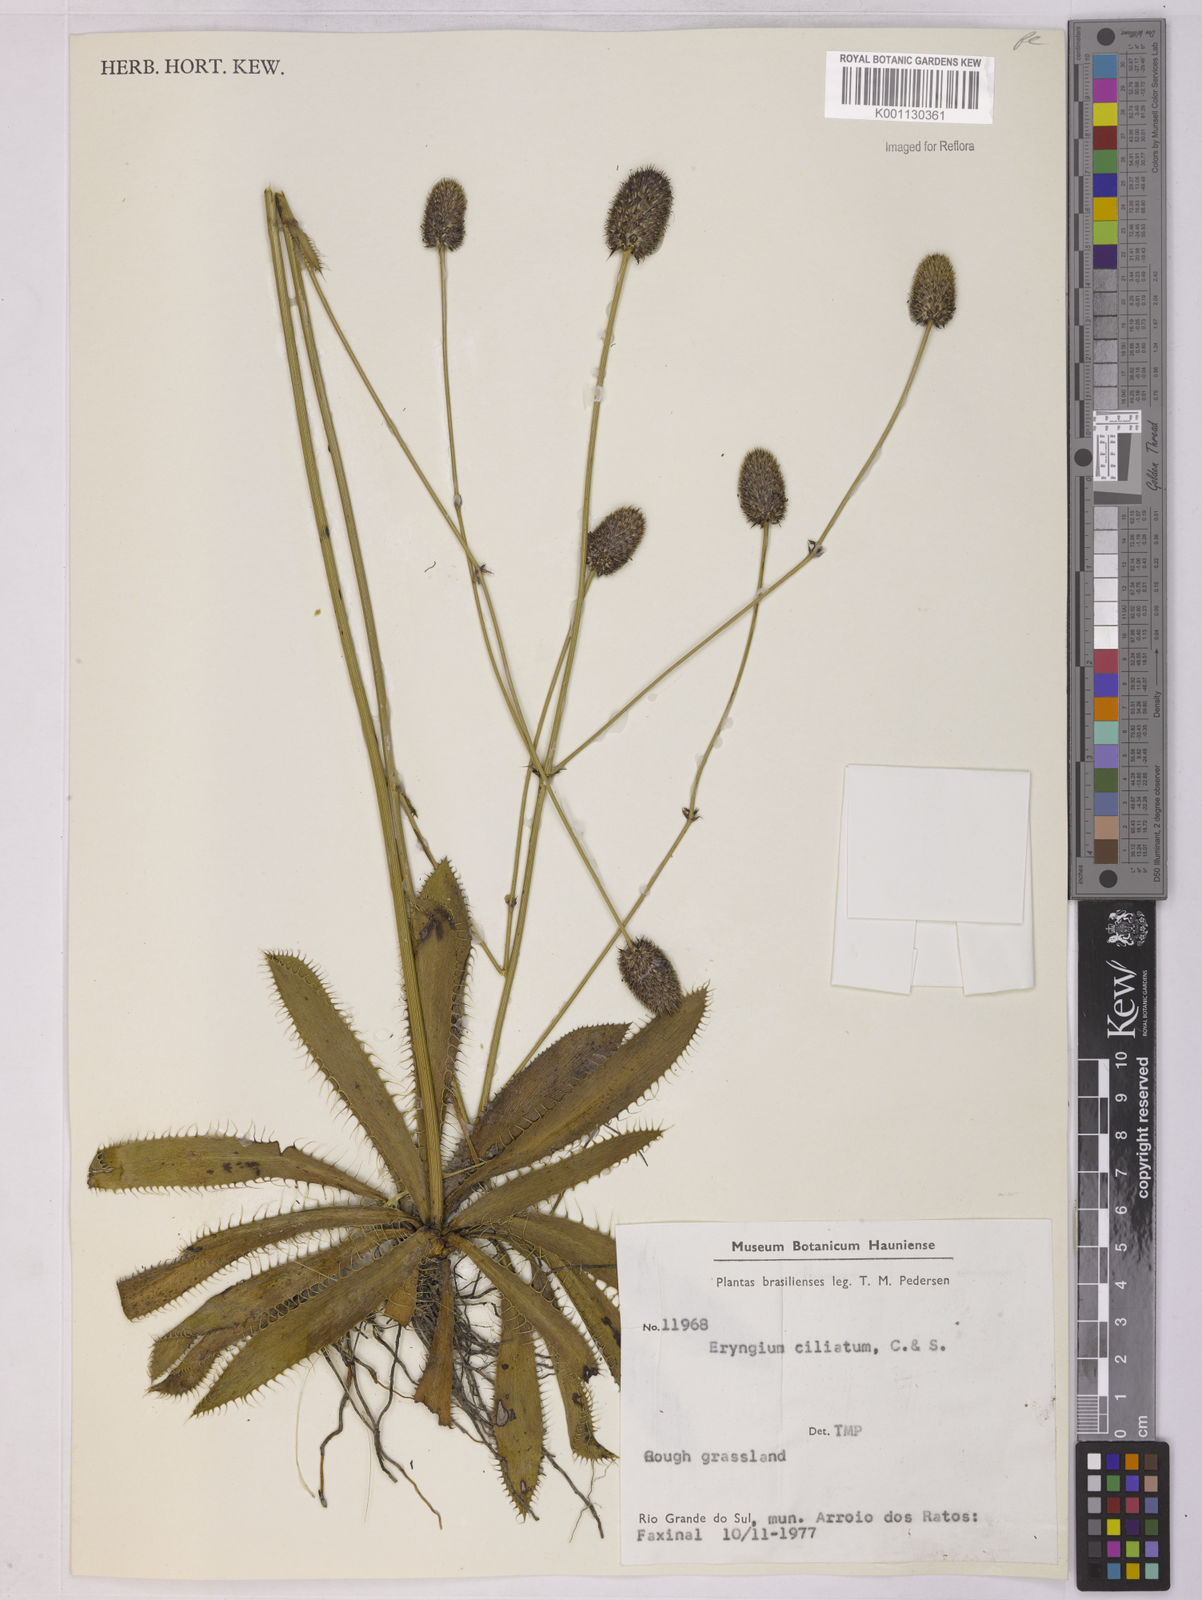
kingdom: Plantae
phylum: Tracheophyta
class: Magnoliopsida
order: Apiales
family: Apiaceae
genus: Eryngium
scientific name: Eryngium ciliatum
